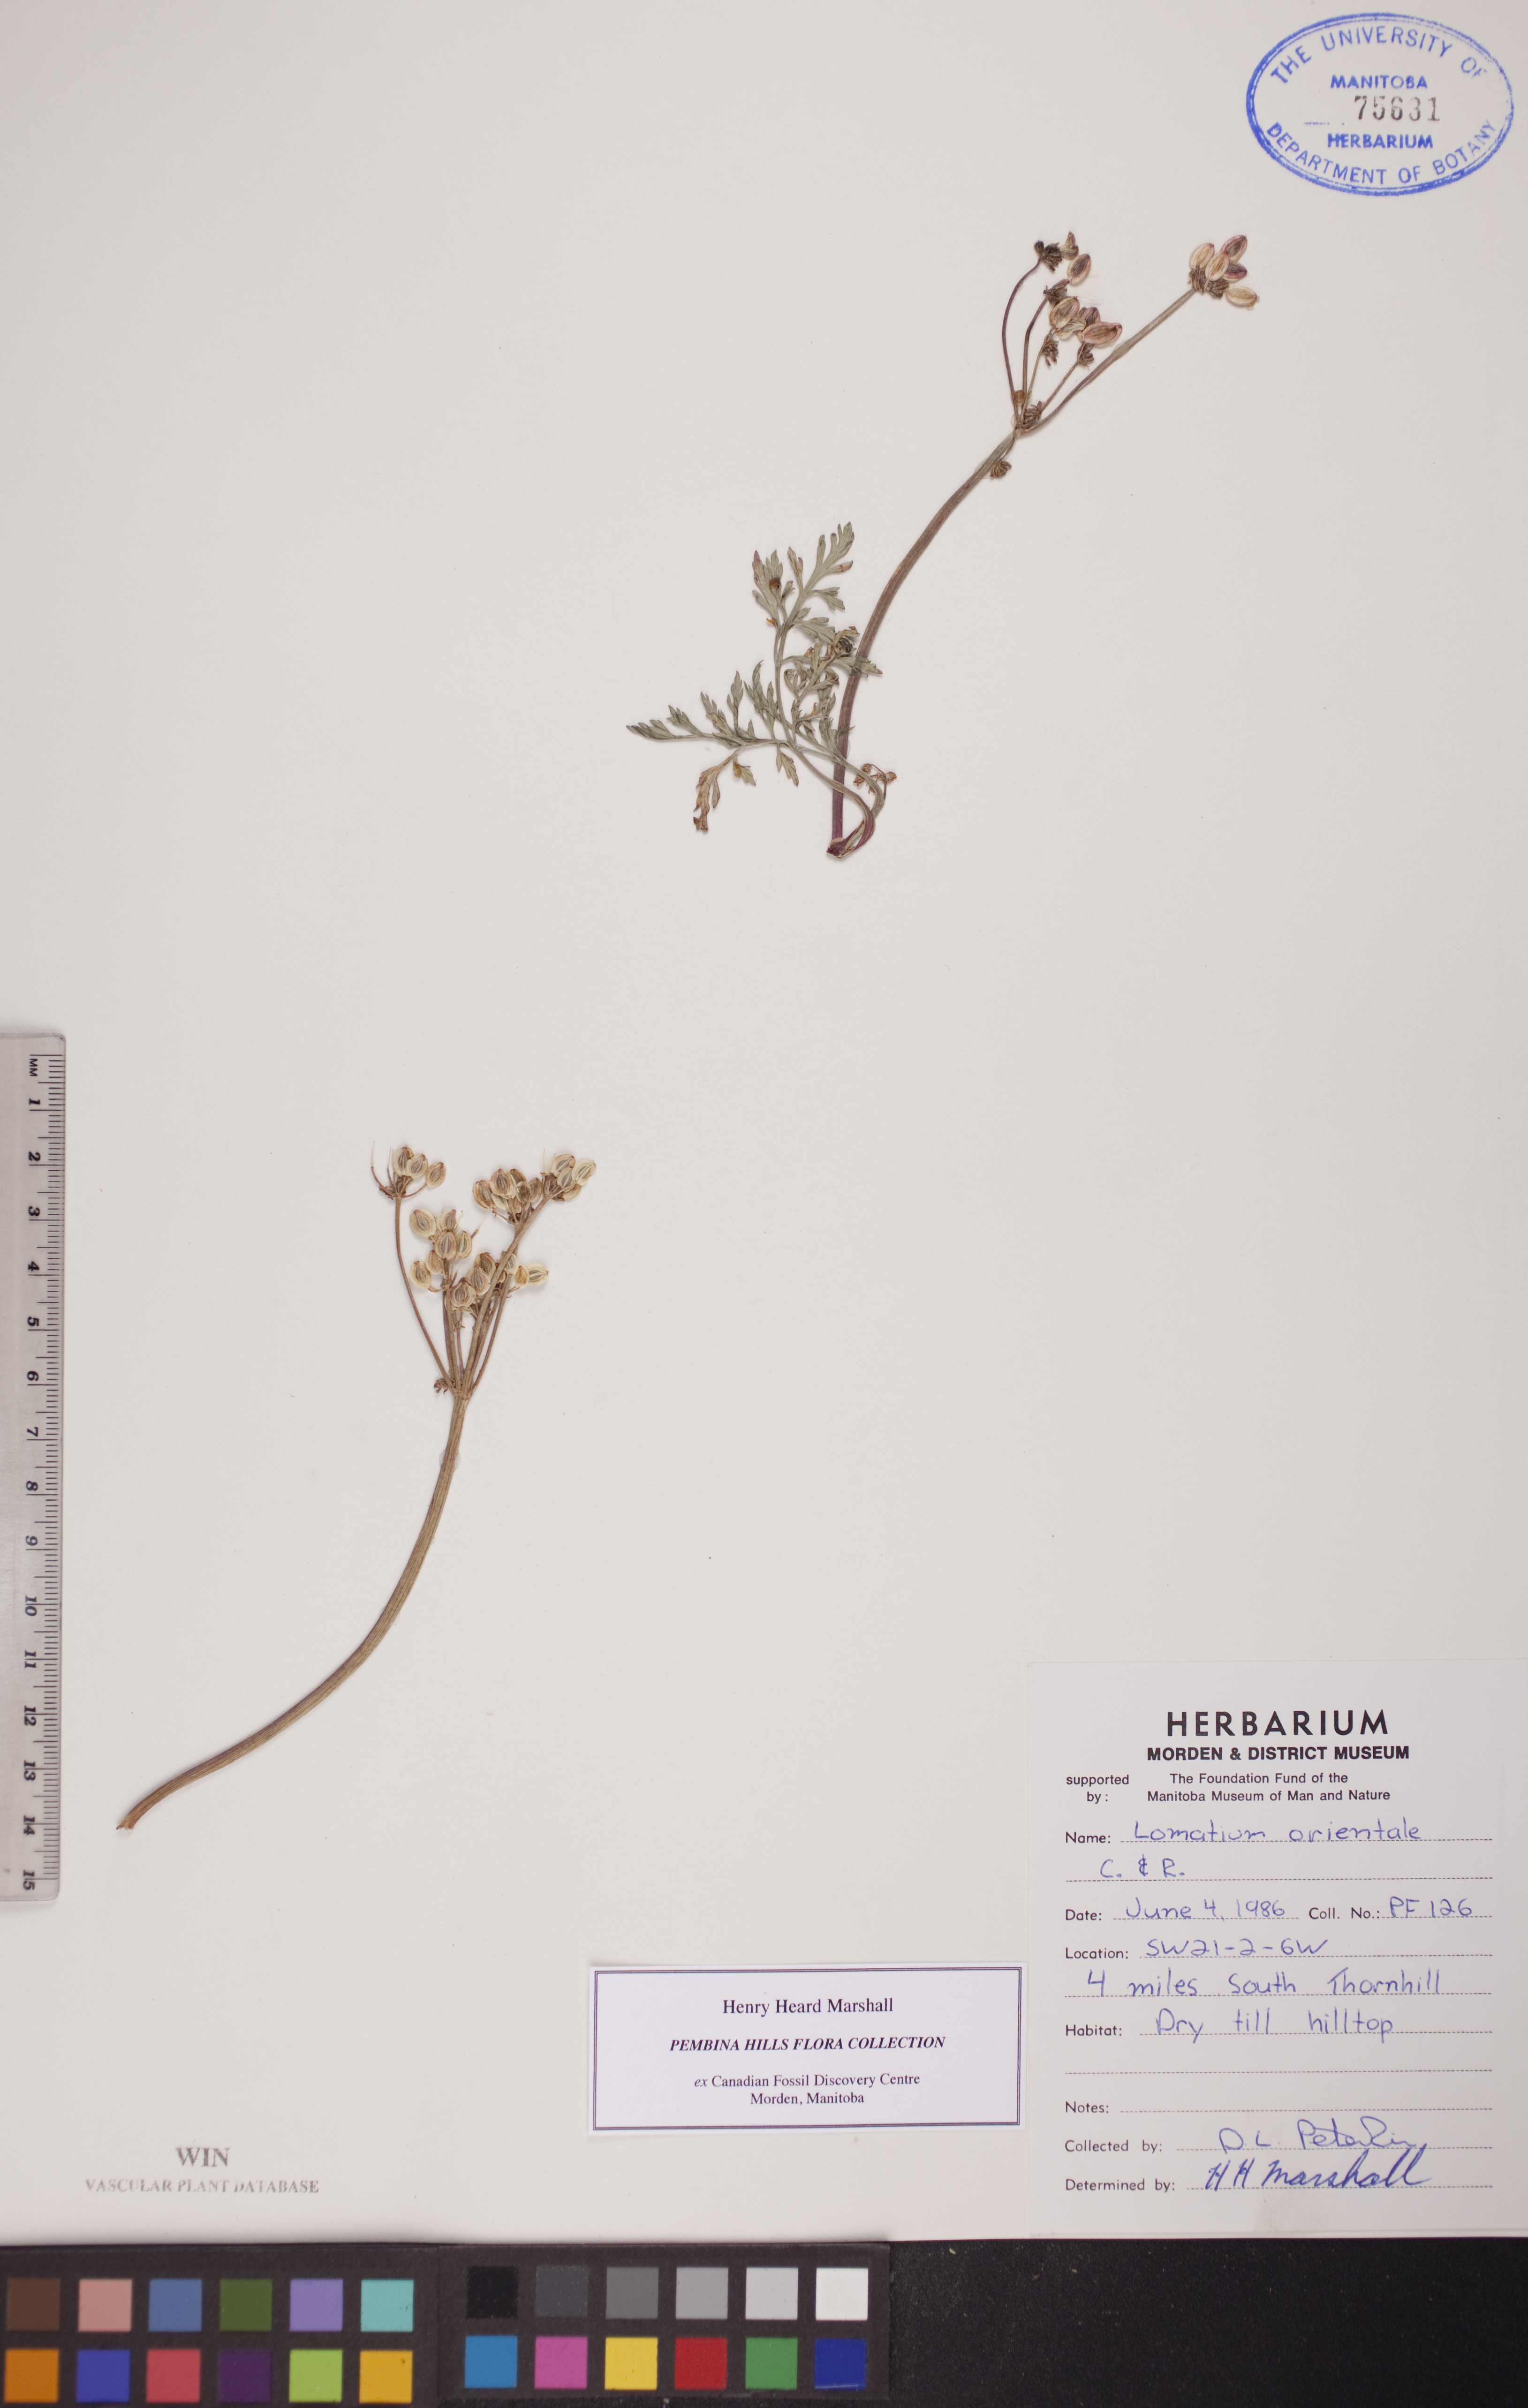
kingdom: Plantae
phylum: Tracheophyta
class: Magnoliopsida
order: Apiales
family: Apiaceae
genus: Lomatium
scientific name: Lomatium orientale
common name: Eastern cous
